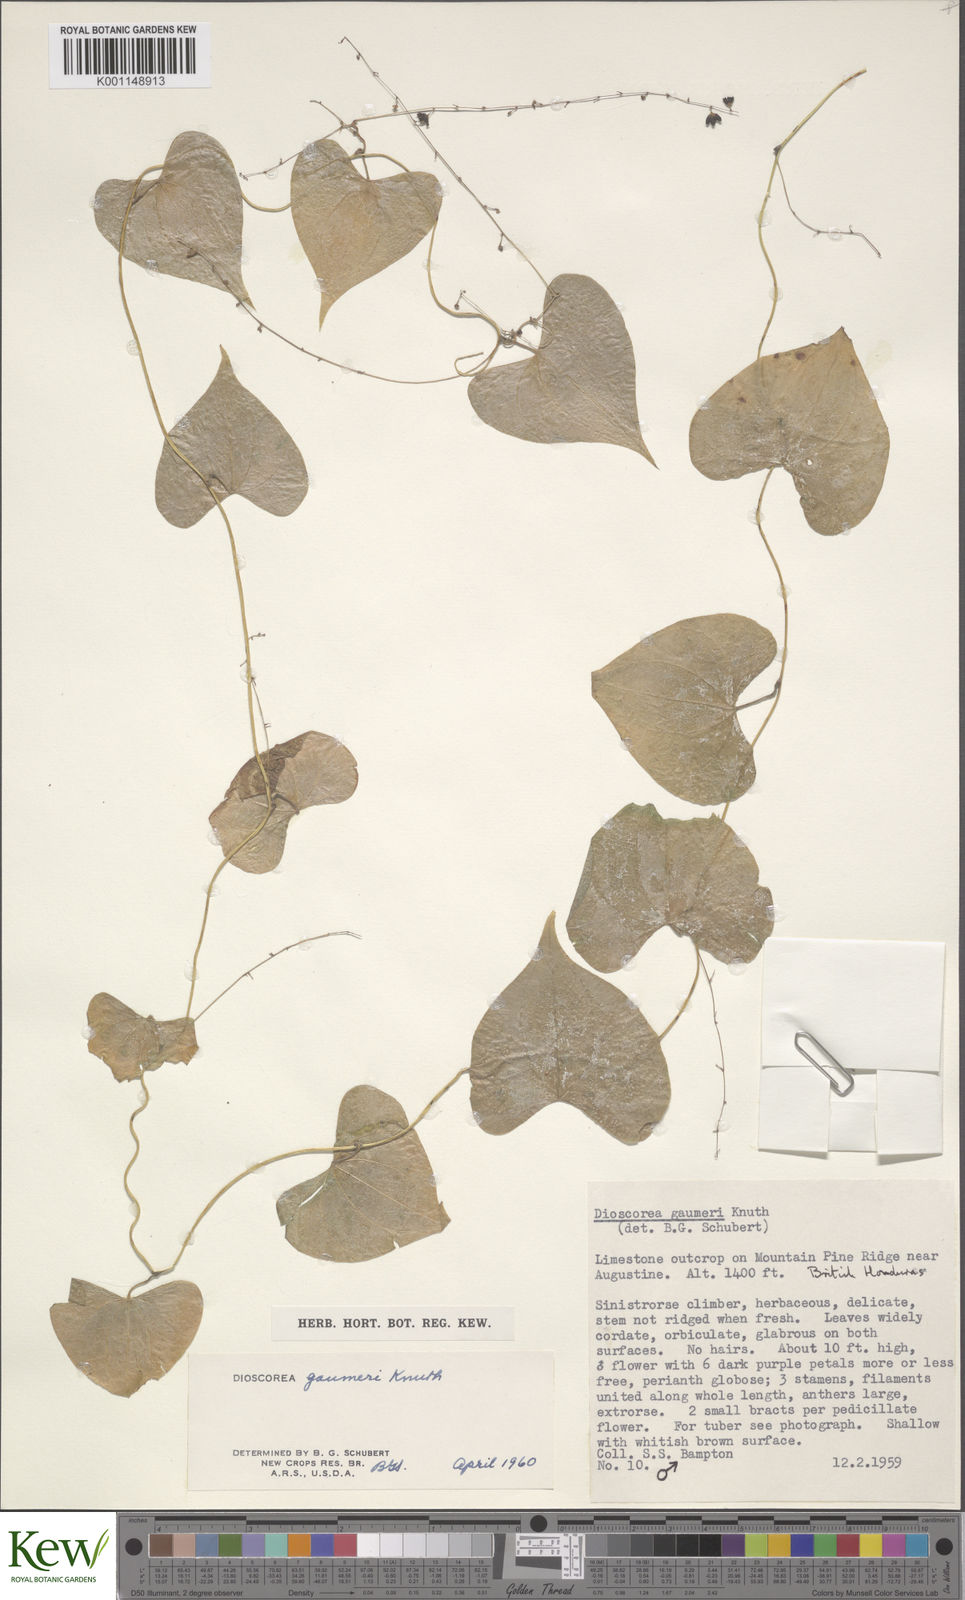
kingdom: Plantae
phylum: Tracheophyta
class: Liliopsida
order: Dioscoreales
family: Dioscoreaceae
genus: Dioscorea
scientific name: Dioscorea gaumeri
